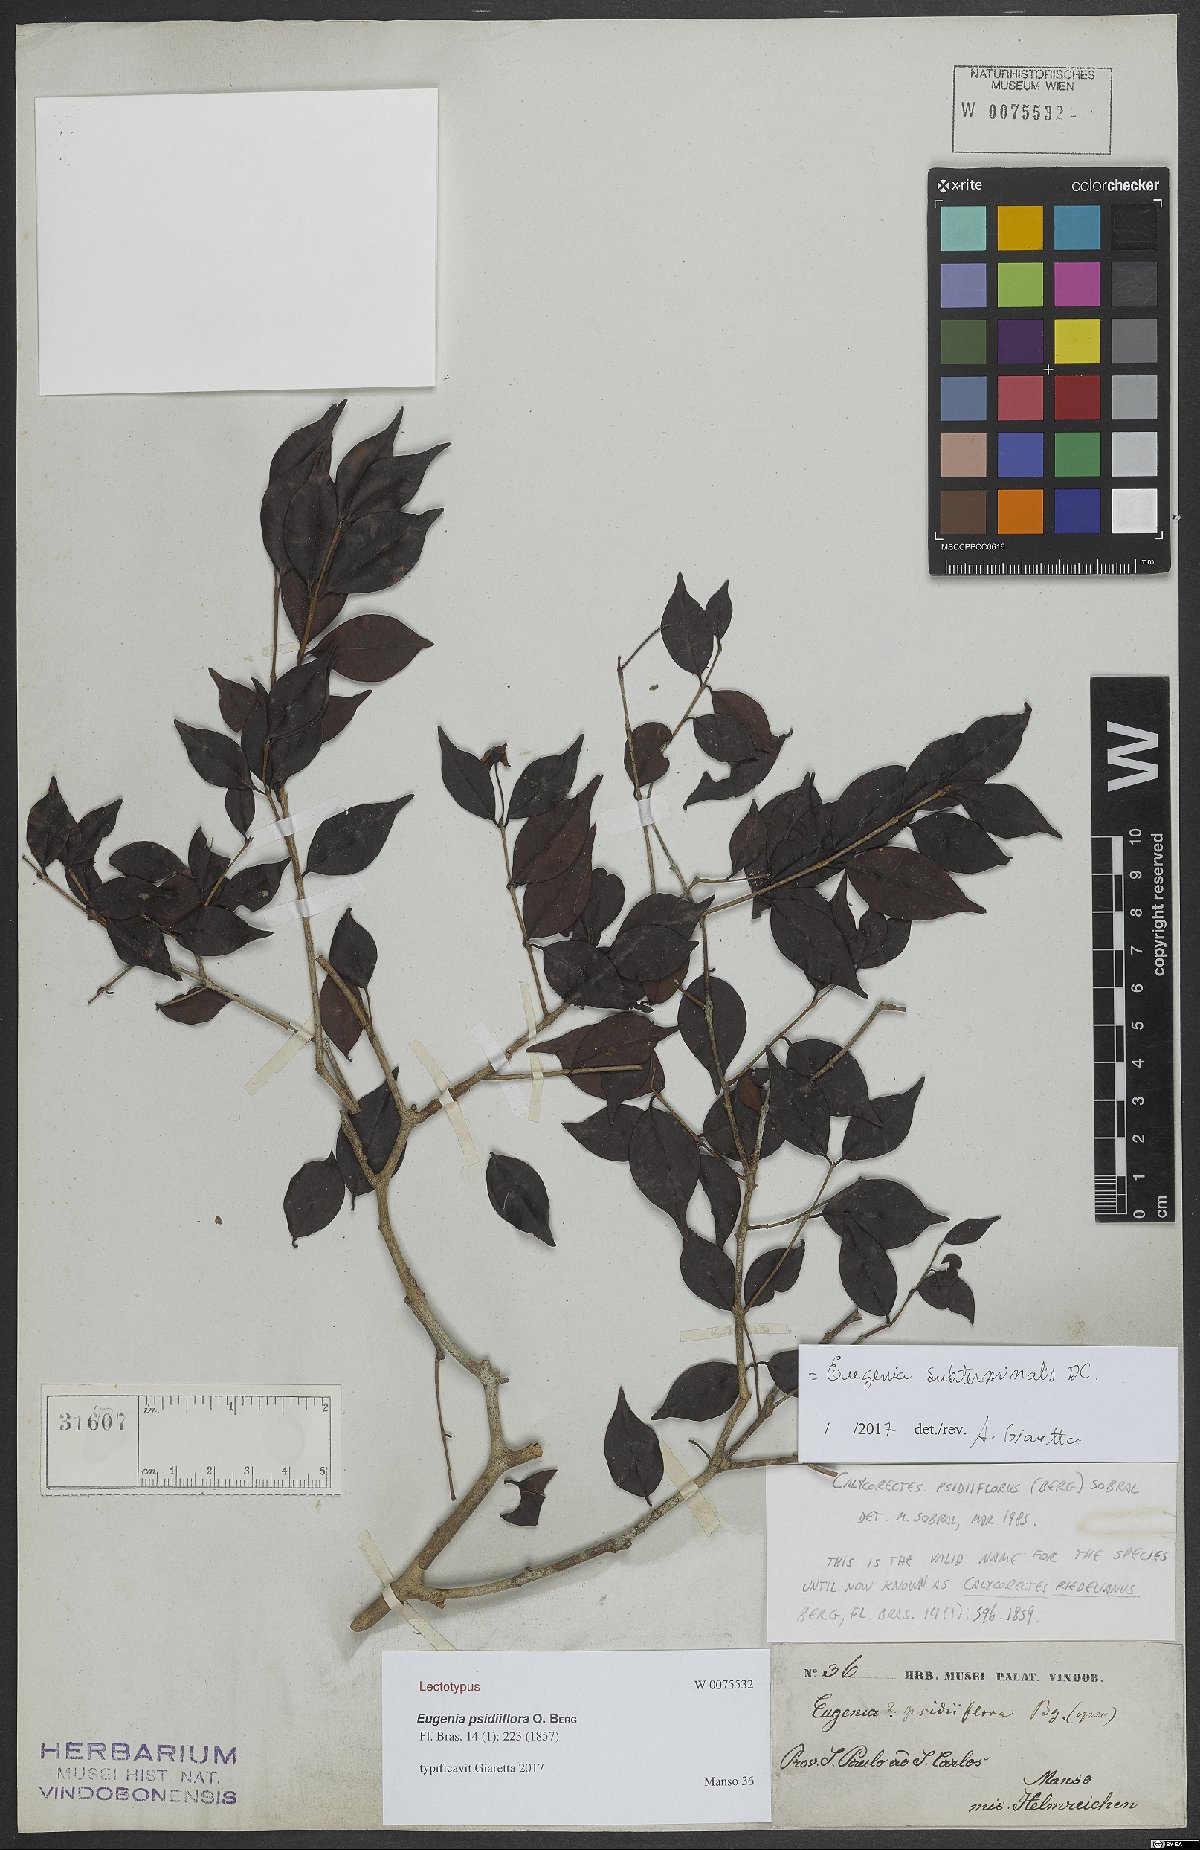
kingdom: Plantae
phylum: Tracheophyta
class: Magnoliopsida
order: Myrtales
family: Myrtaceae
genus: Eugenia
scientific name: Eugenia subterminalis
